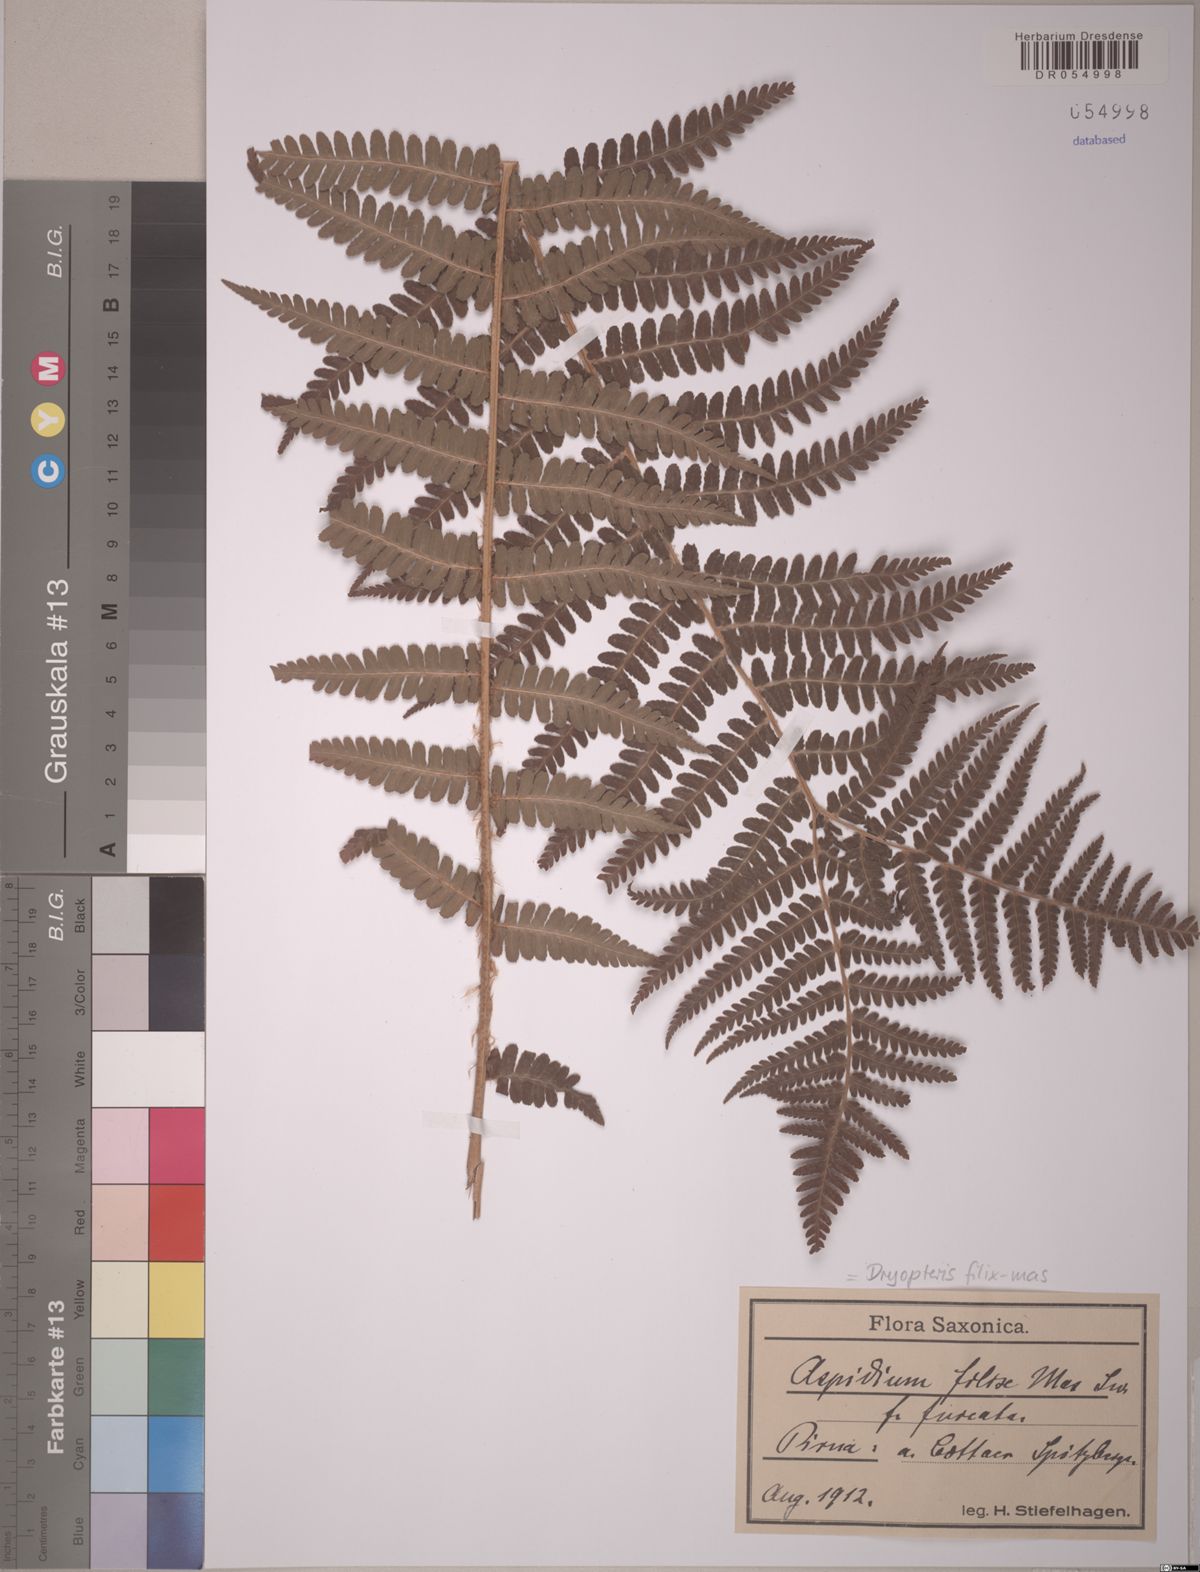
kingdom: Plantae
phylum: Tracheophyta
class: Polypodiopsida
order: Polypodiales
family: Dryopteridaceae
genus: Dryopteris
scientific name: Dryopteris filix-mas
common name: Male fern
